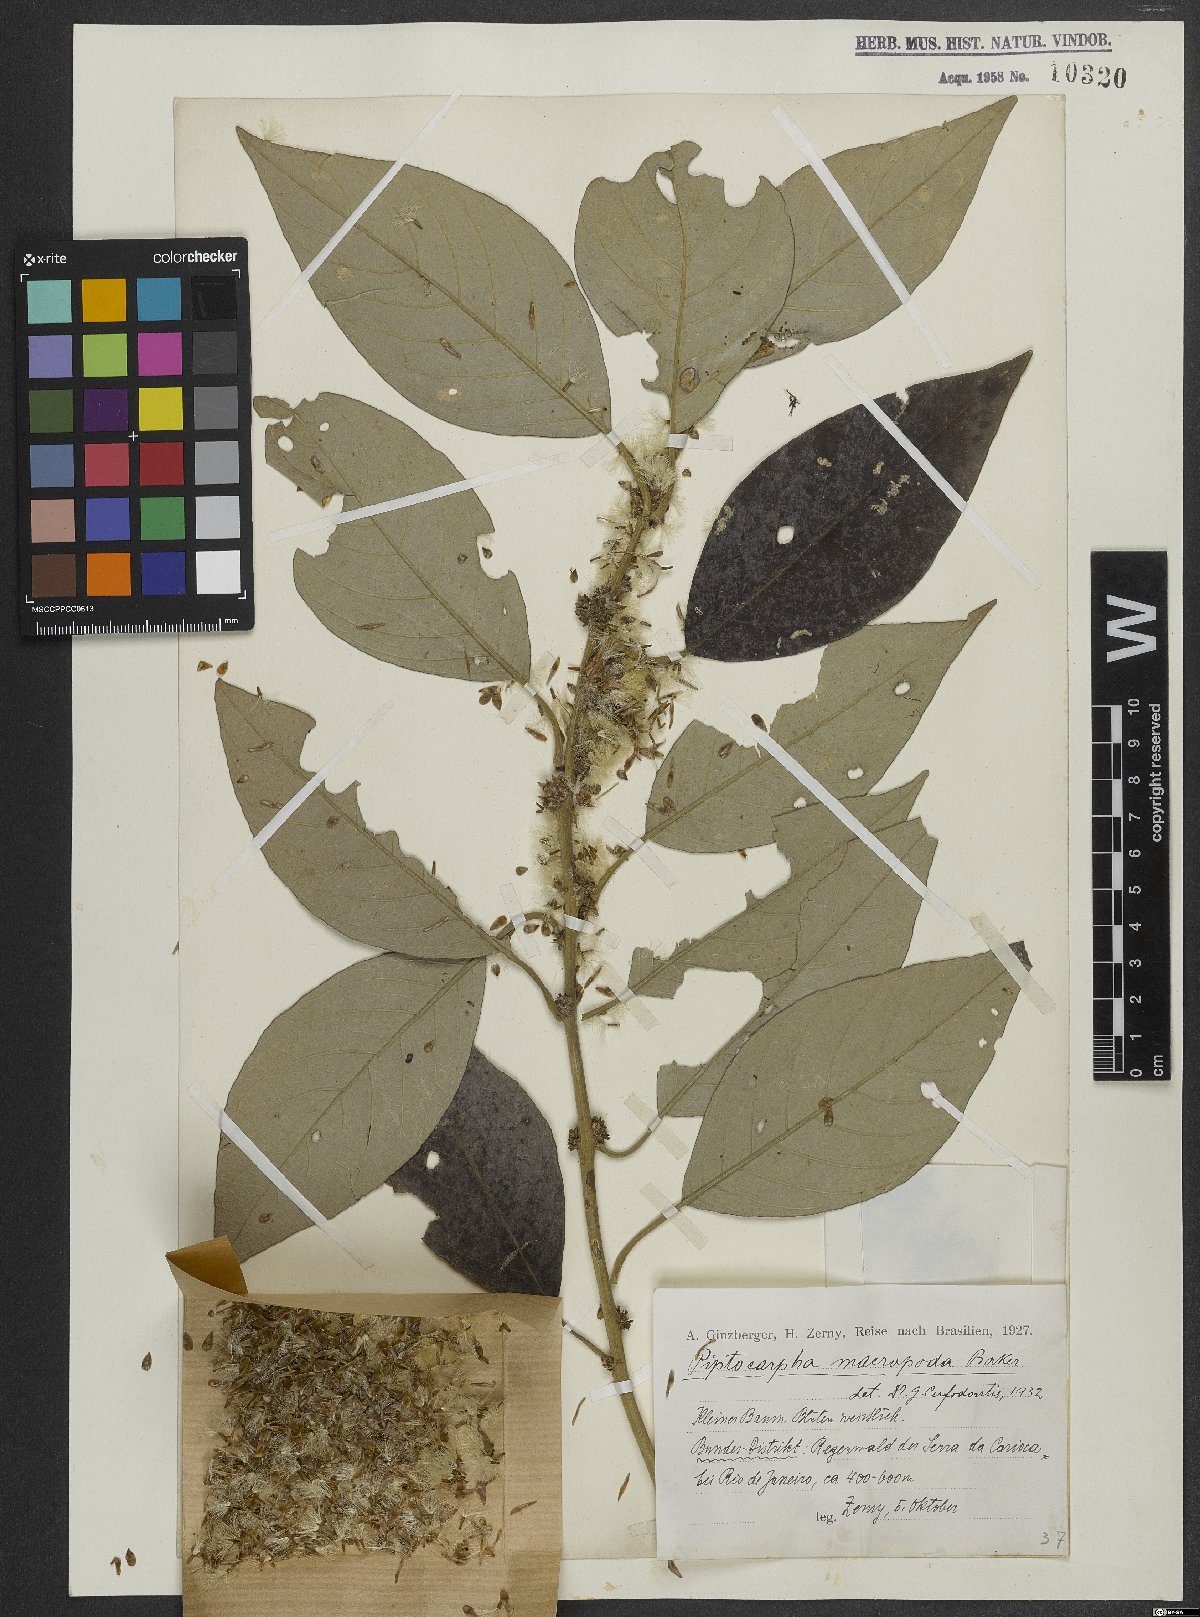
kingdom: Plantae
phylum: Tracheophyta
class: Magnoliopsida
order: Asterales
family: Asteraceae
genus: Piptocarpha
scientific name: Piptocarpha macropoda
